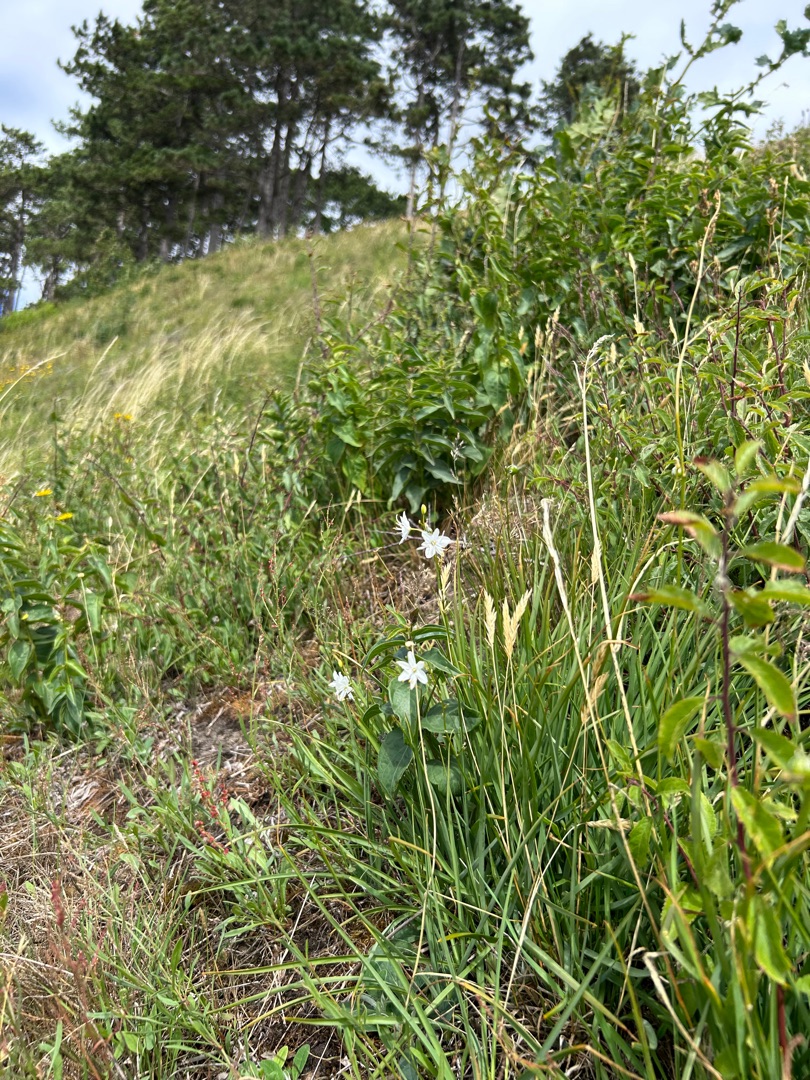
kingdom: Plantae
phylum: Tracheophyta
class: Liliopsida
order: Asparagales
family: Asparagaceae
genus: Anthericum
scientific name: Anthericum ramosum
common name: Grenet edderkopurt
